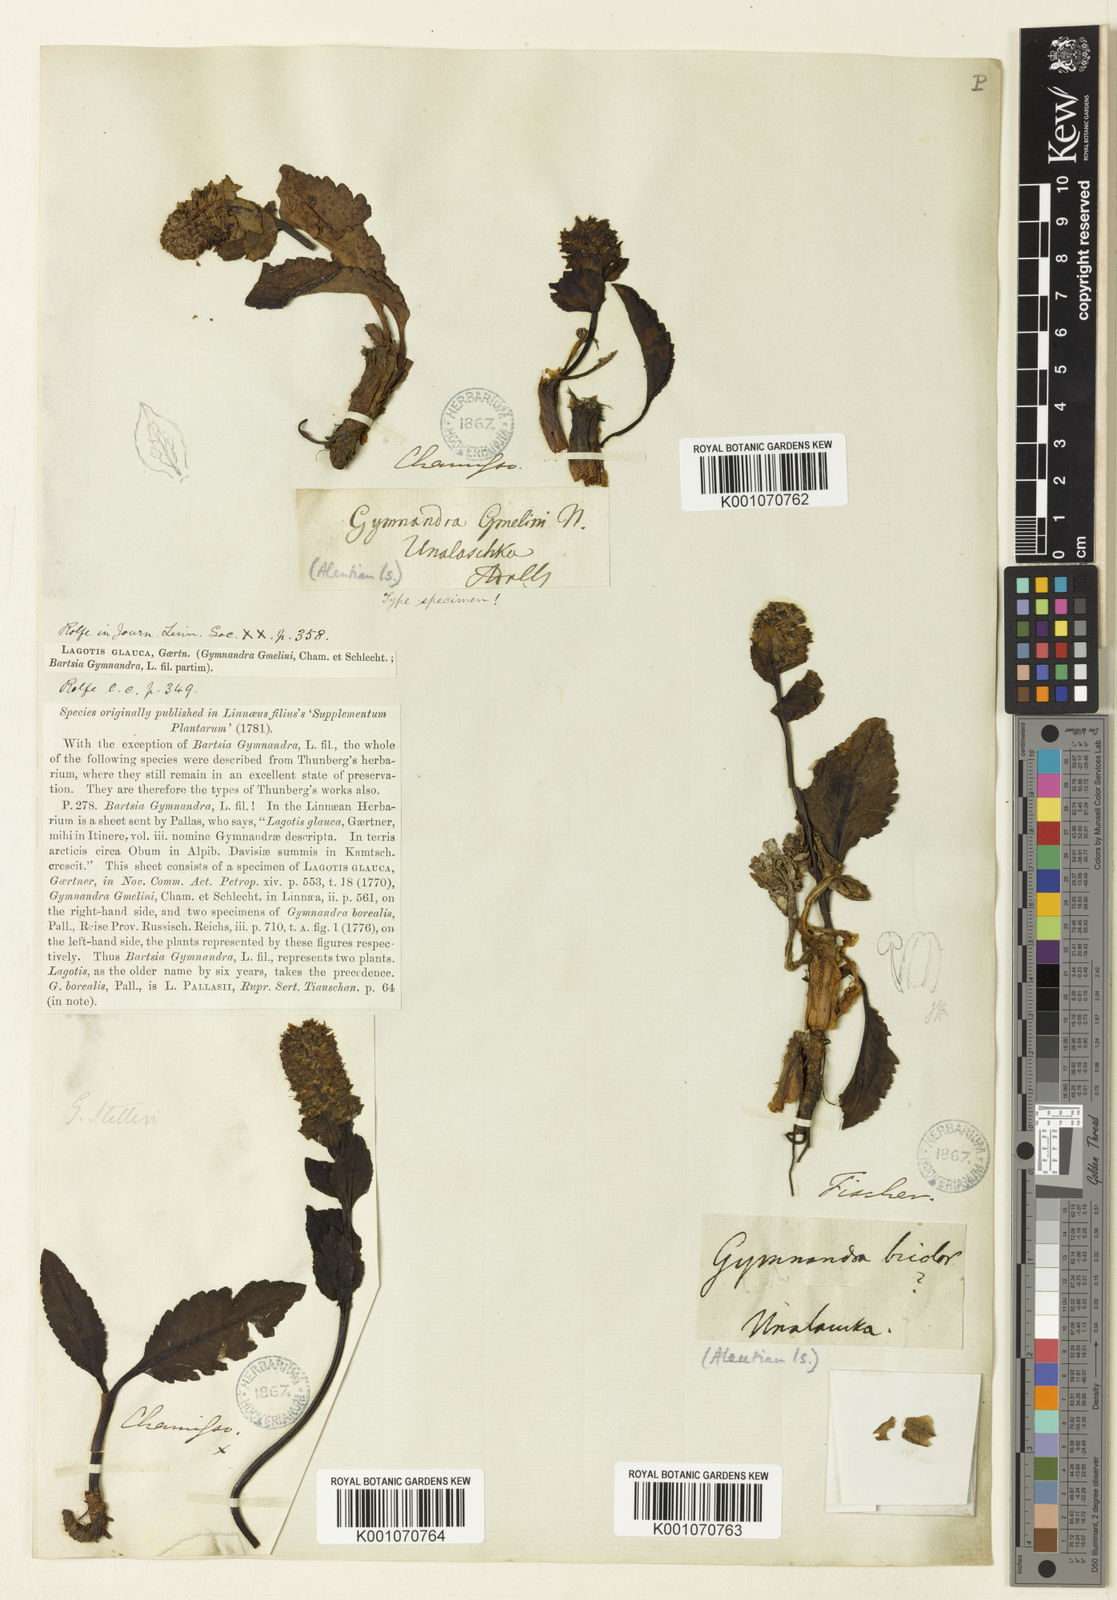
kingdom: Plantae
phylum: Tracheophyta
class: Magnoliopsida
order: Lamiales
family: Plantaginaceae
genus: Lagotis
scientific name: Lagotis glauca
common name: Glaucous weaselsnout
